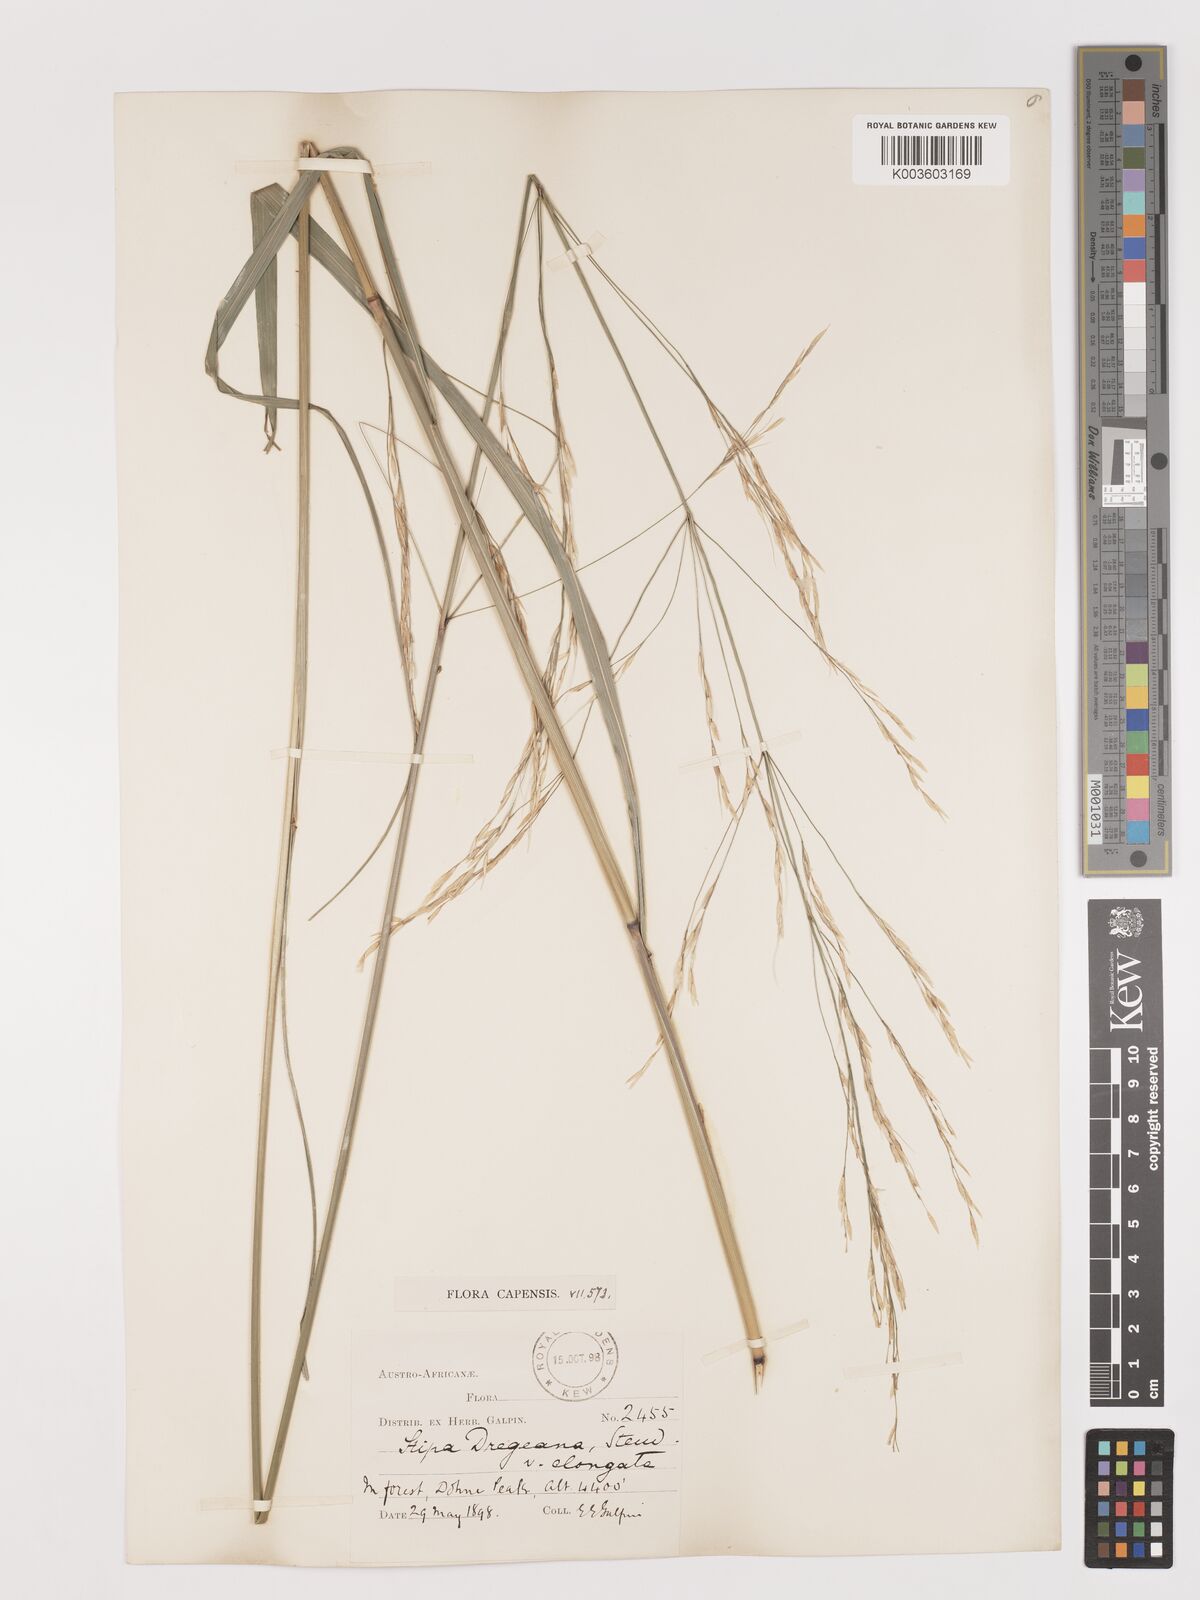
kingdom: Plantae
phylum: Tracheophyta
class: Liliopsida
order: Poales
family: Poaceae
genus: Stipa
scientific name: Stipa dregeana
